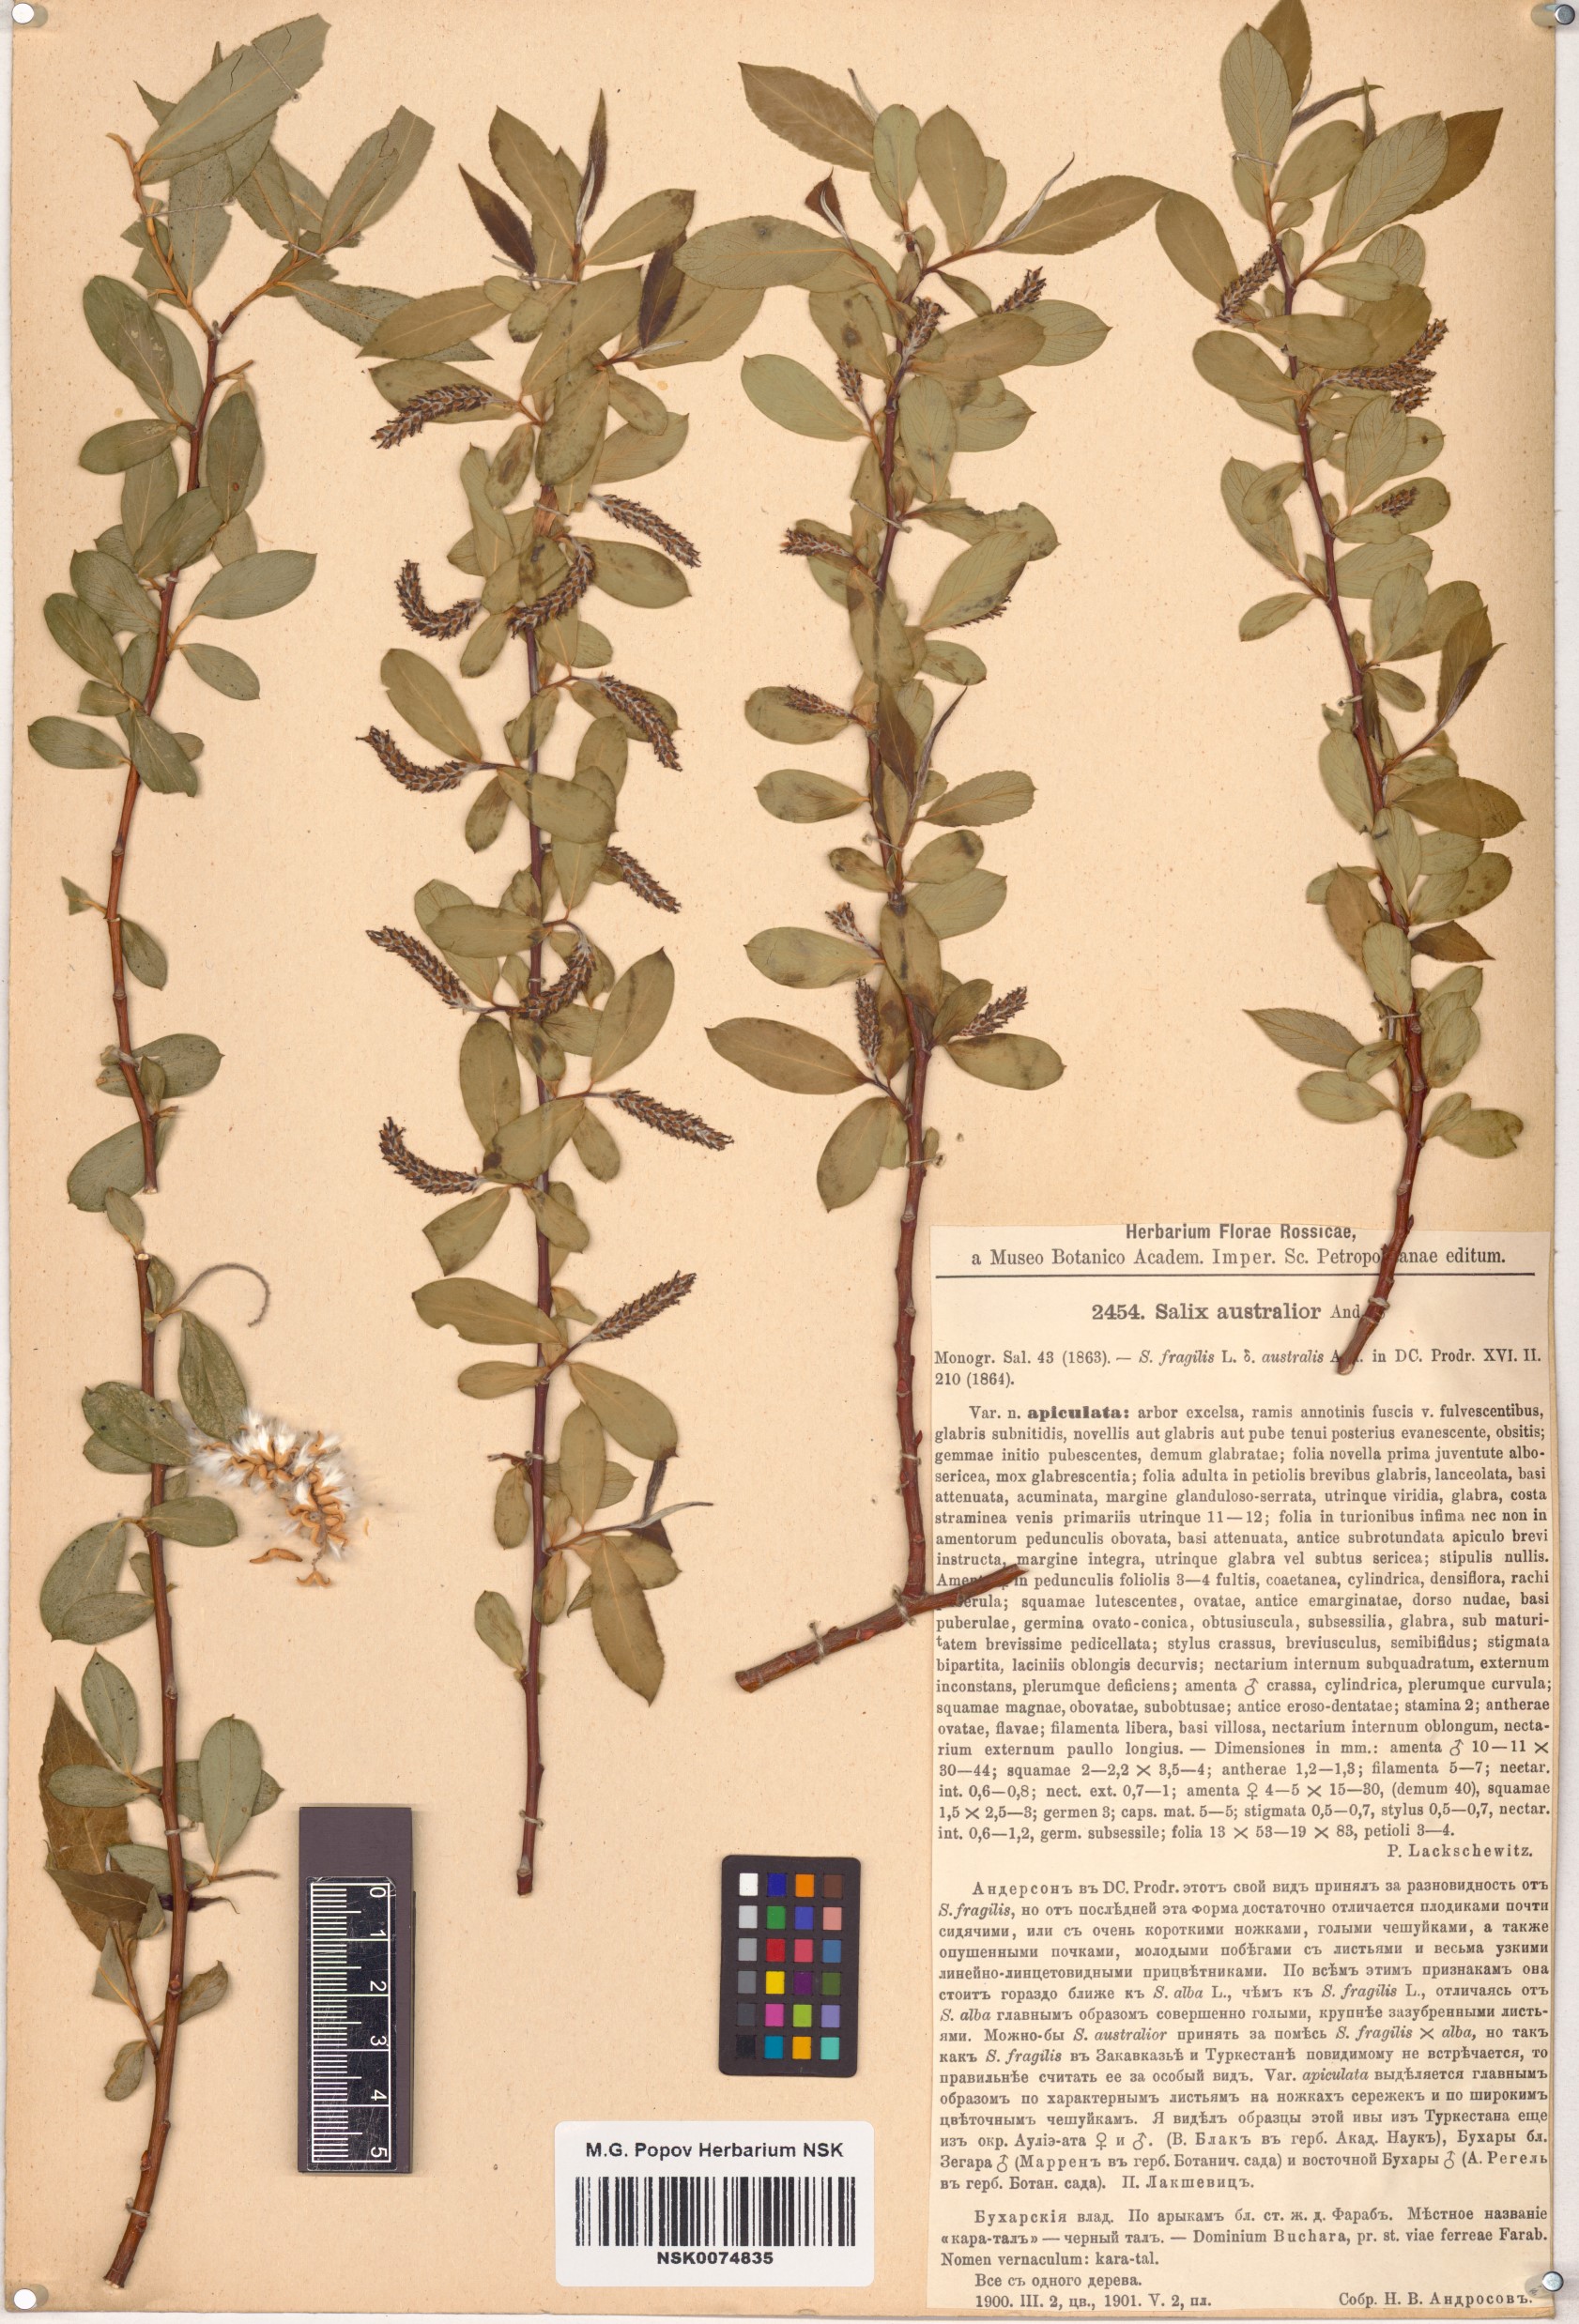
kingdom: Plantae
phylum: Tracheophyta
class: Magnoliopsida
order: Malpighiales
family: Salicaceae
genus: Salix
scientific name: Salix excelsa
